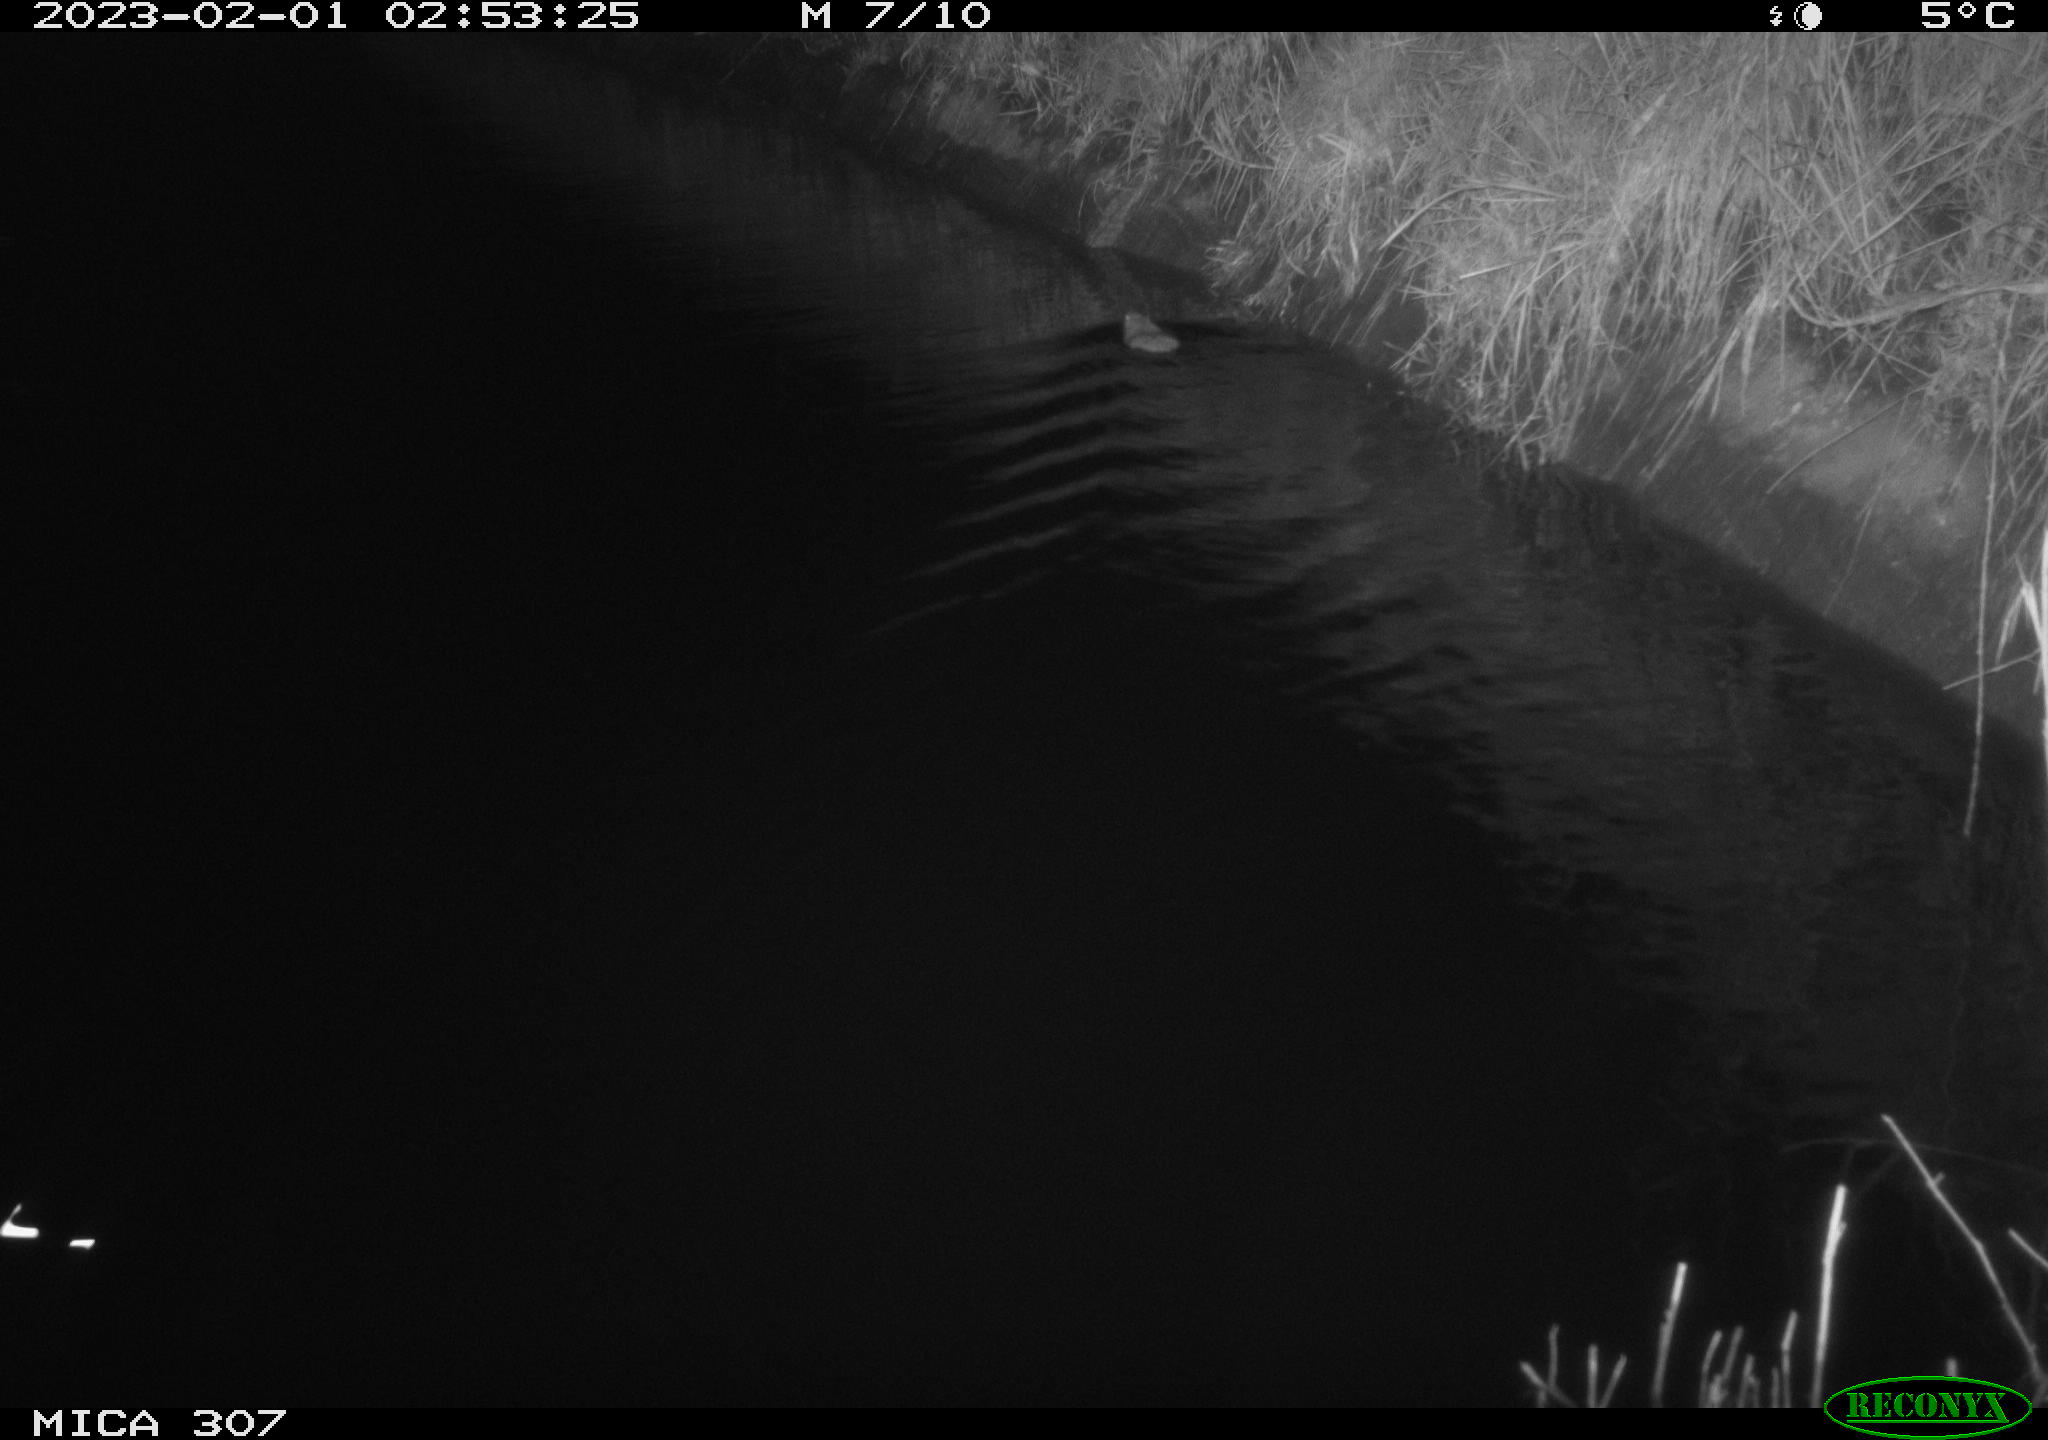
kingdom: Animalia
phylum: Chordata
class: Mammalia
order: Rodentia
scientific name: Rodentia
